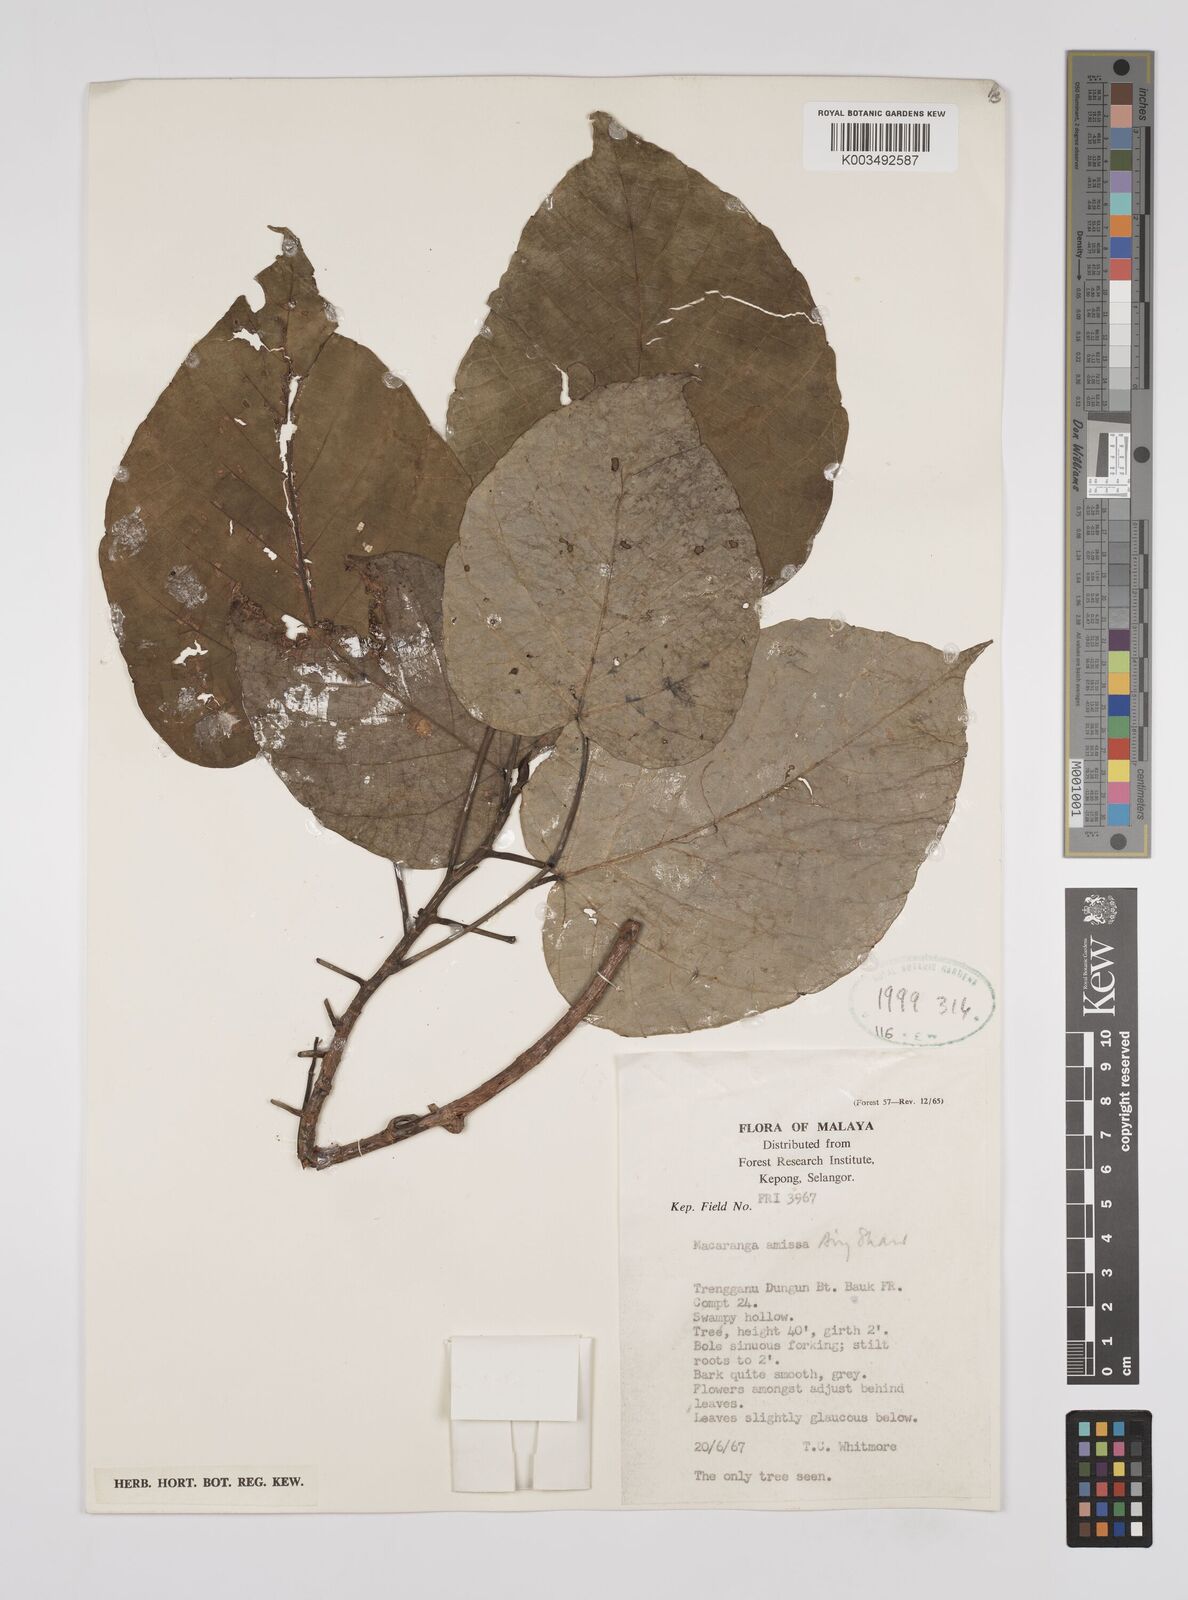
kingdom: Plantae
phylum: Tracheophyta
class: Magnoliopsida
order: Malpighiales
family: Euphorbiaceae
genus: Macaranga
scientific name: Macaranga amissa
